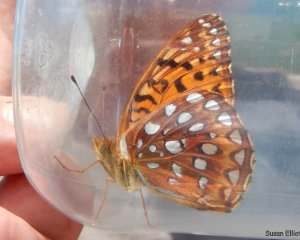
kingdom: Animalia
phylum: Arthropoda
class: Insecta
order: Lepidoptera
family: Nymphalidae
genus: Speyeria
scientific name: Speyeria aphrodite
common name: Aphrodite Fritillary
